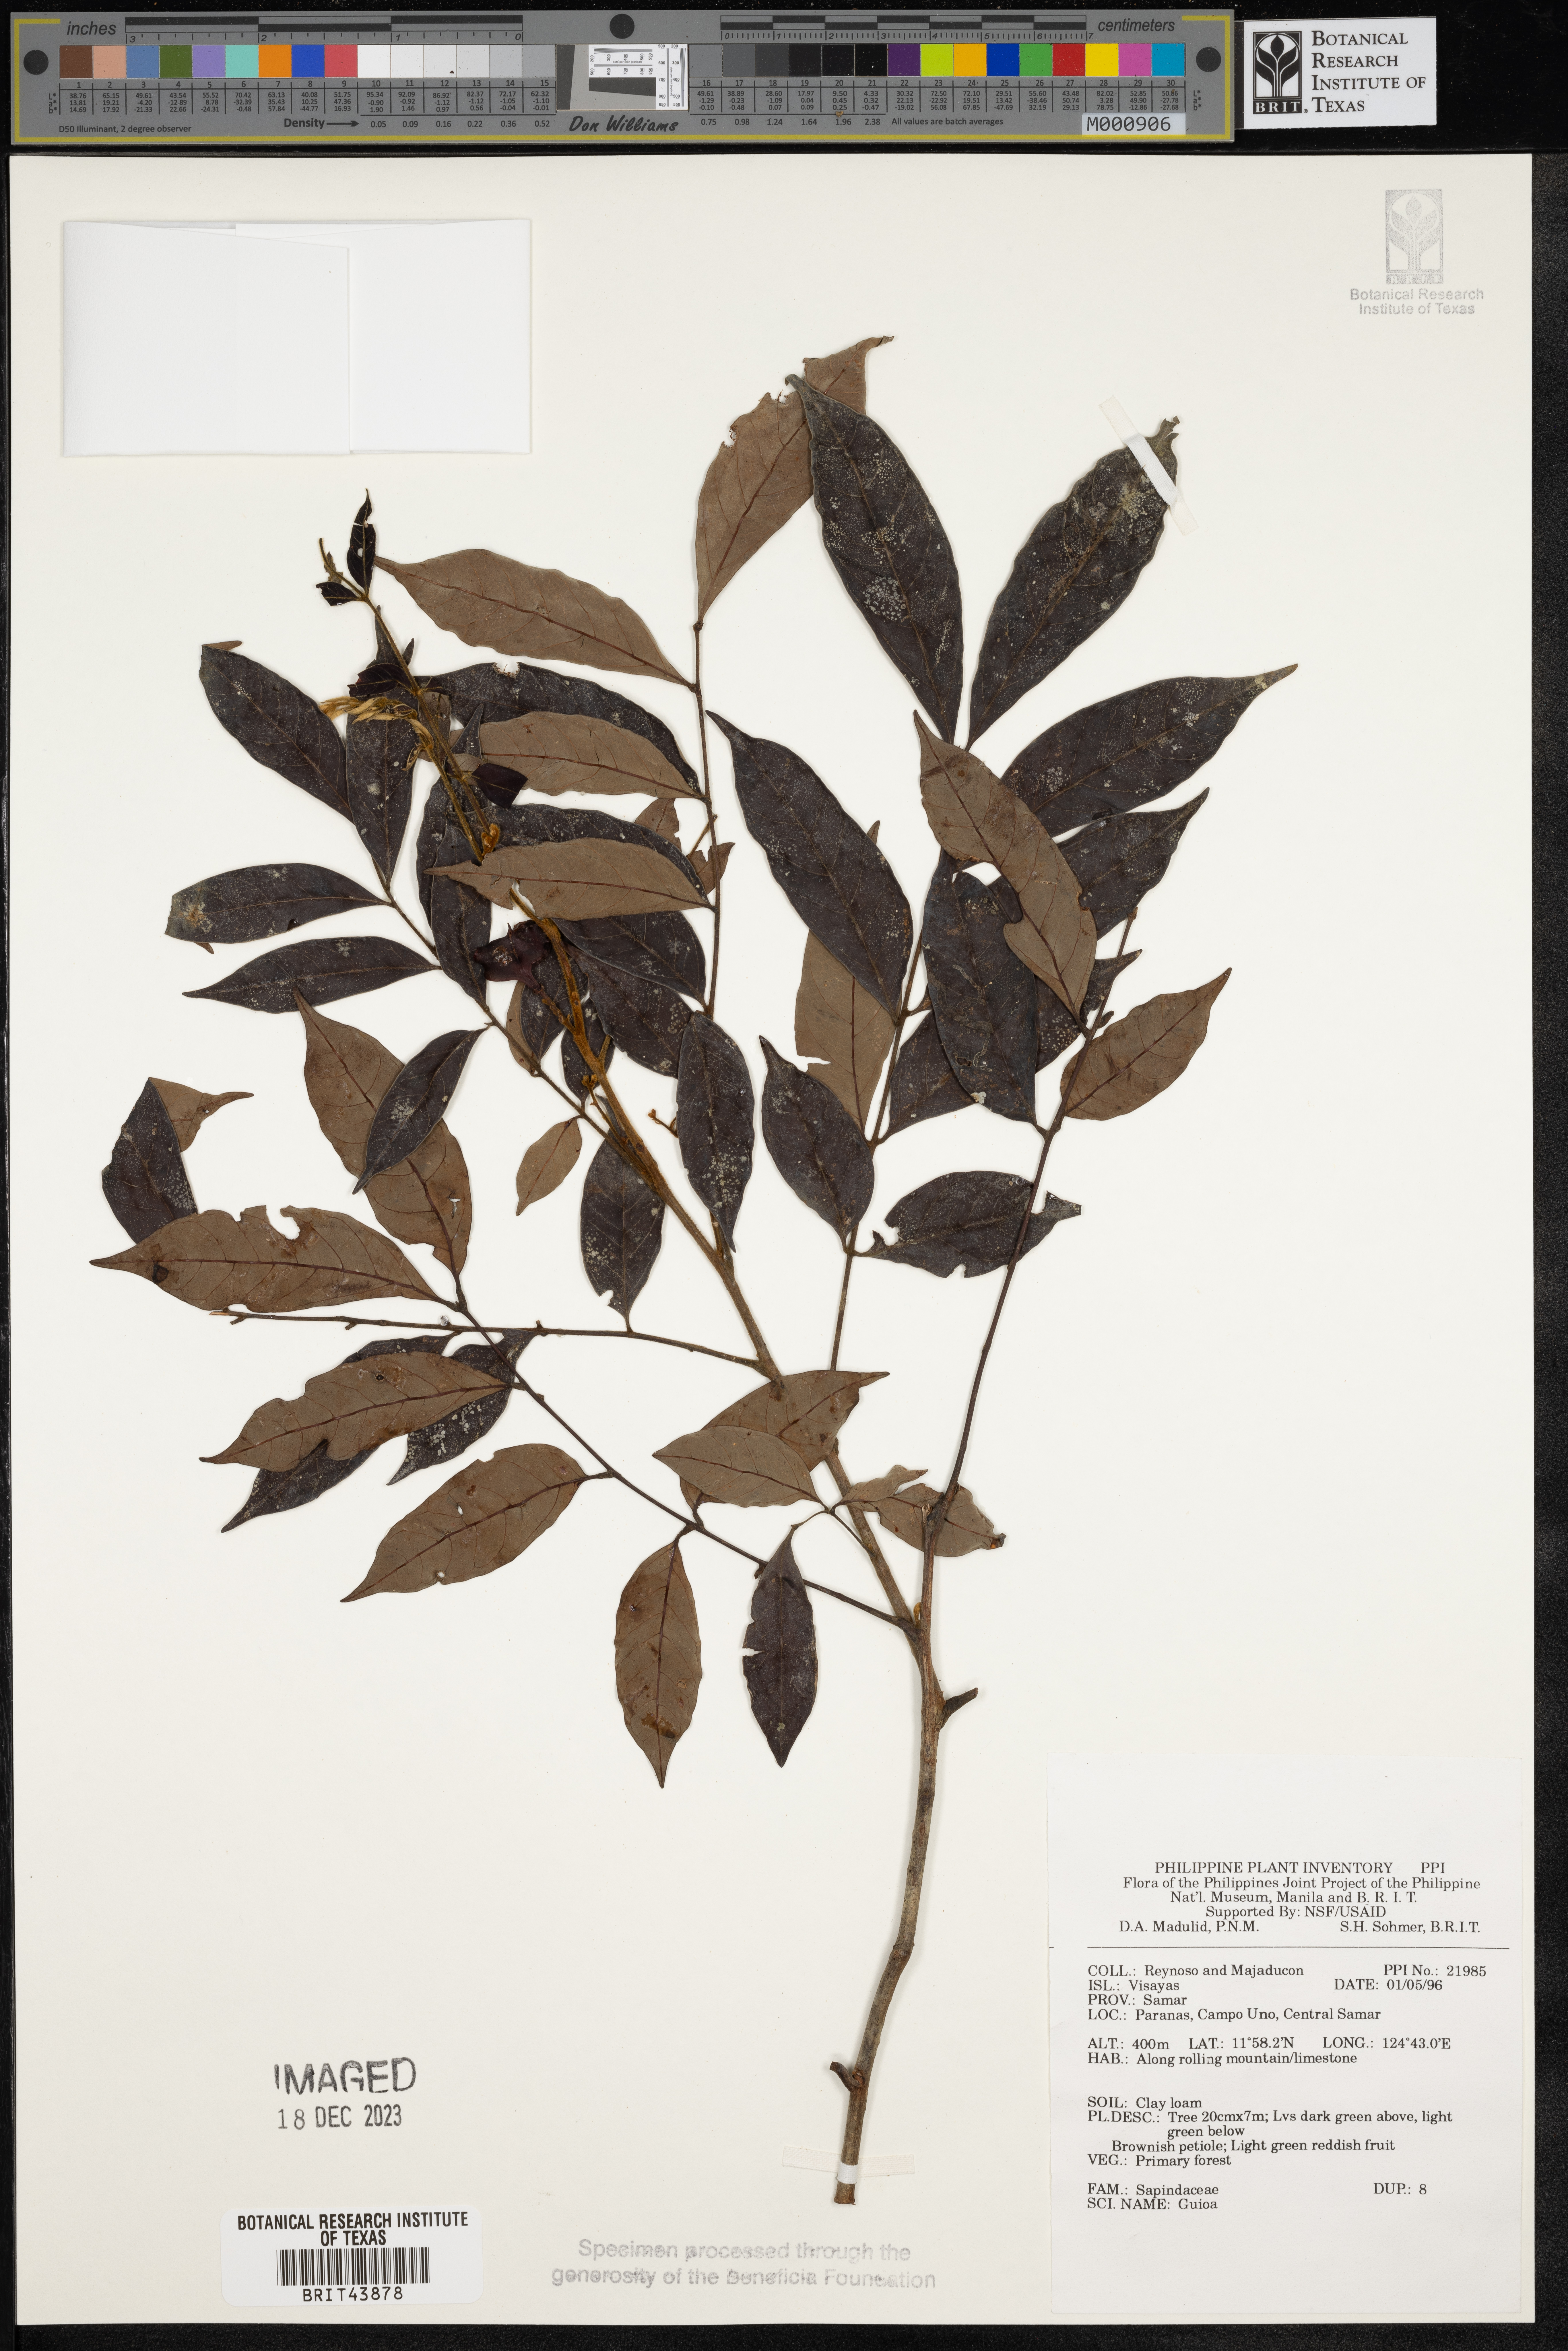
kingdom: Plantae
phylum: Tracheophyta
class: Magnoliopsida
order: Sapindales
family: Sapindaceae
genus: Guioa
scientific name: Guioa
